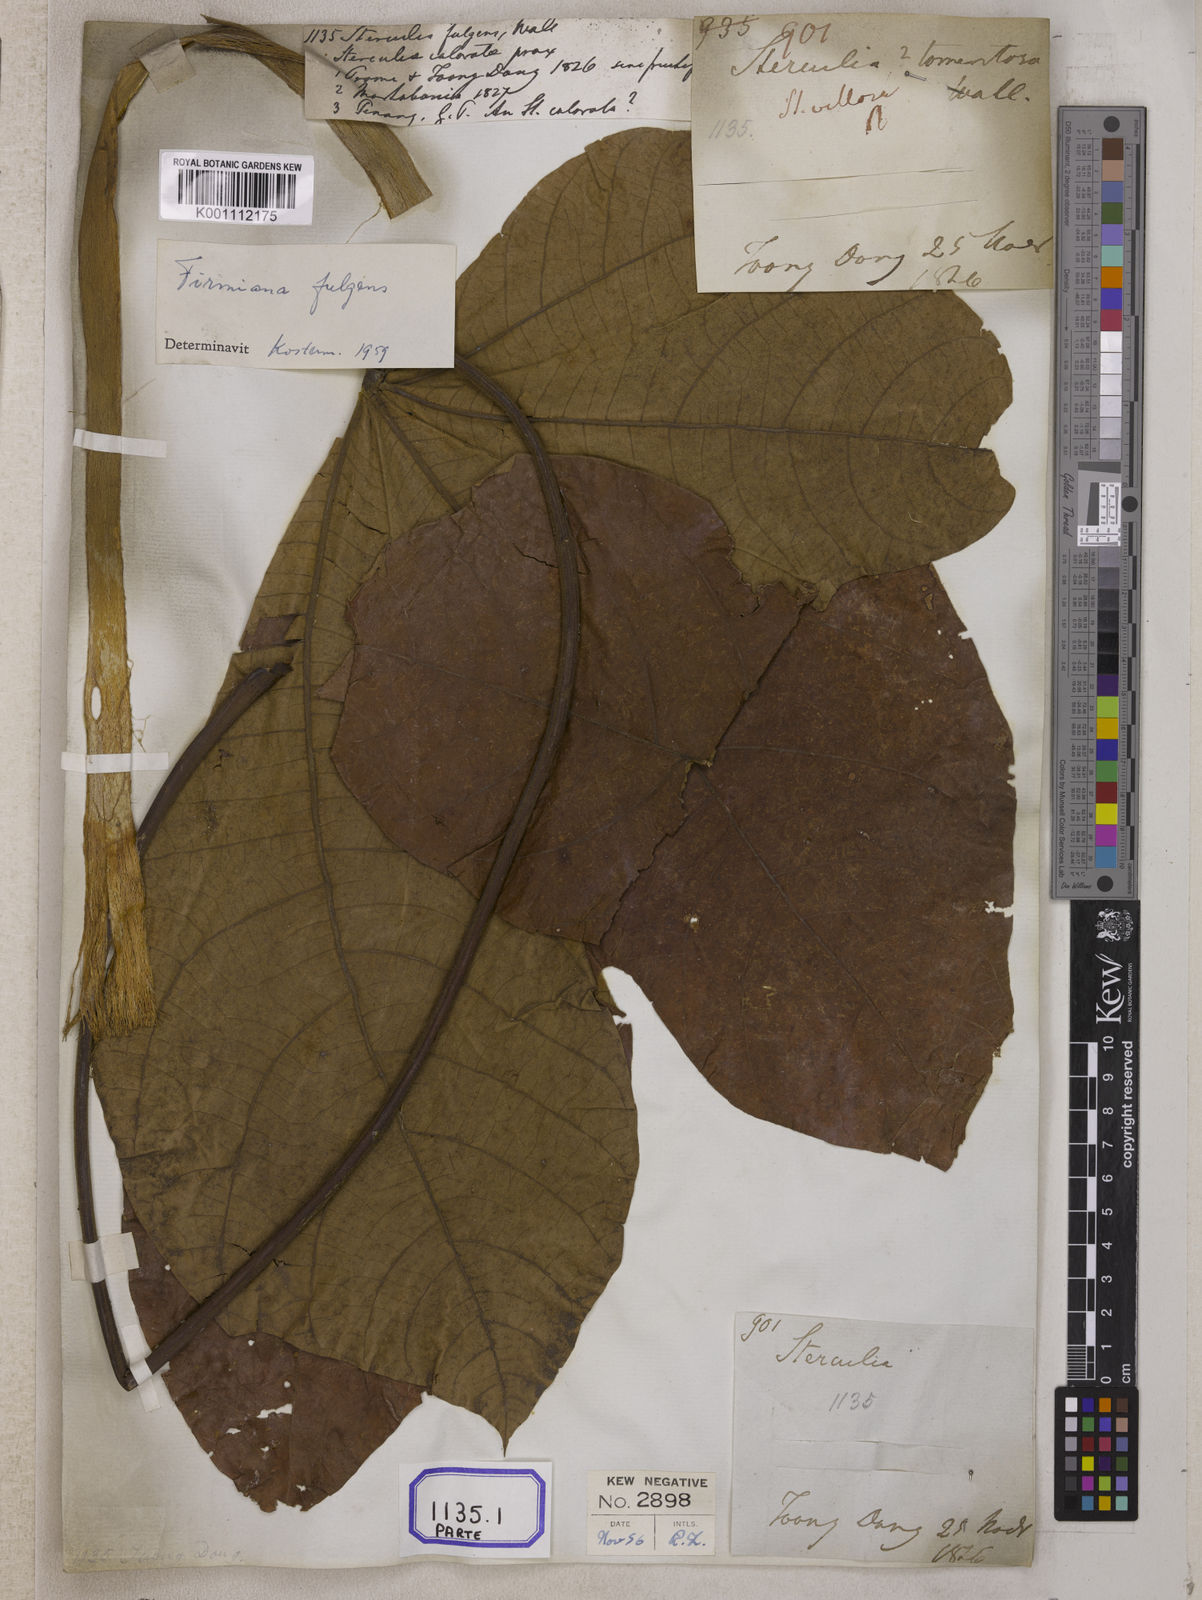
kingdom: Plantae
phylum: Tracheophyta
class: Magnoliopsida
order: Malvales
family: Malvaceae
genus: Sterculia
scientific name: Sterculia
